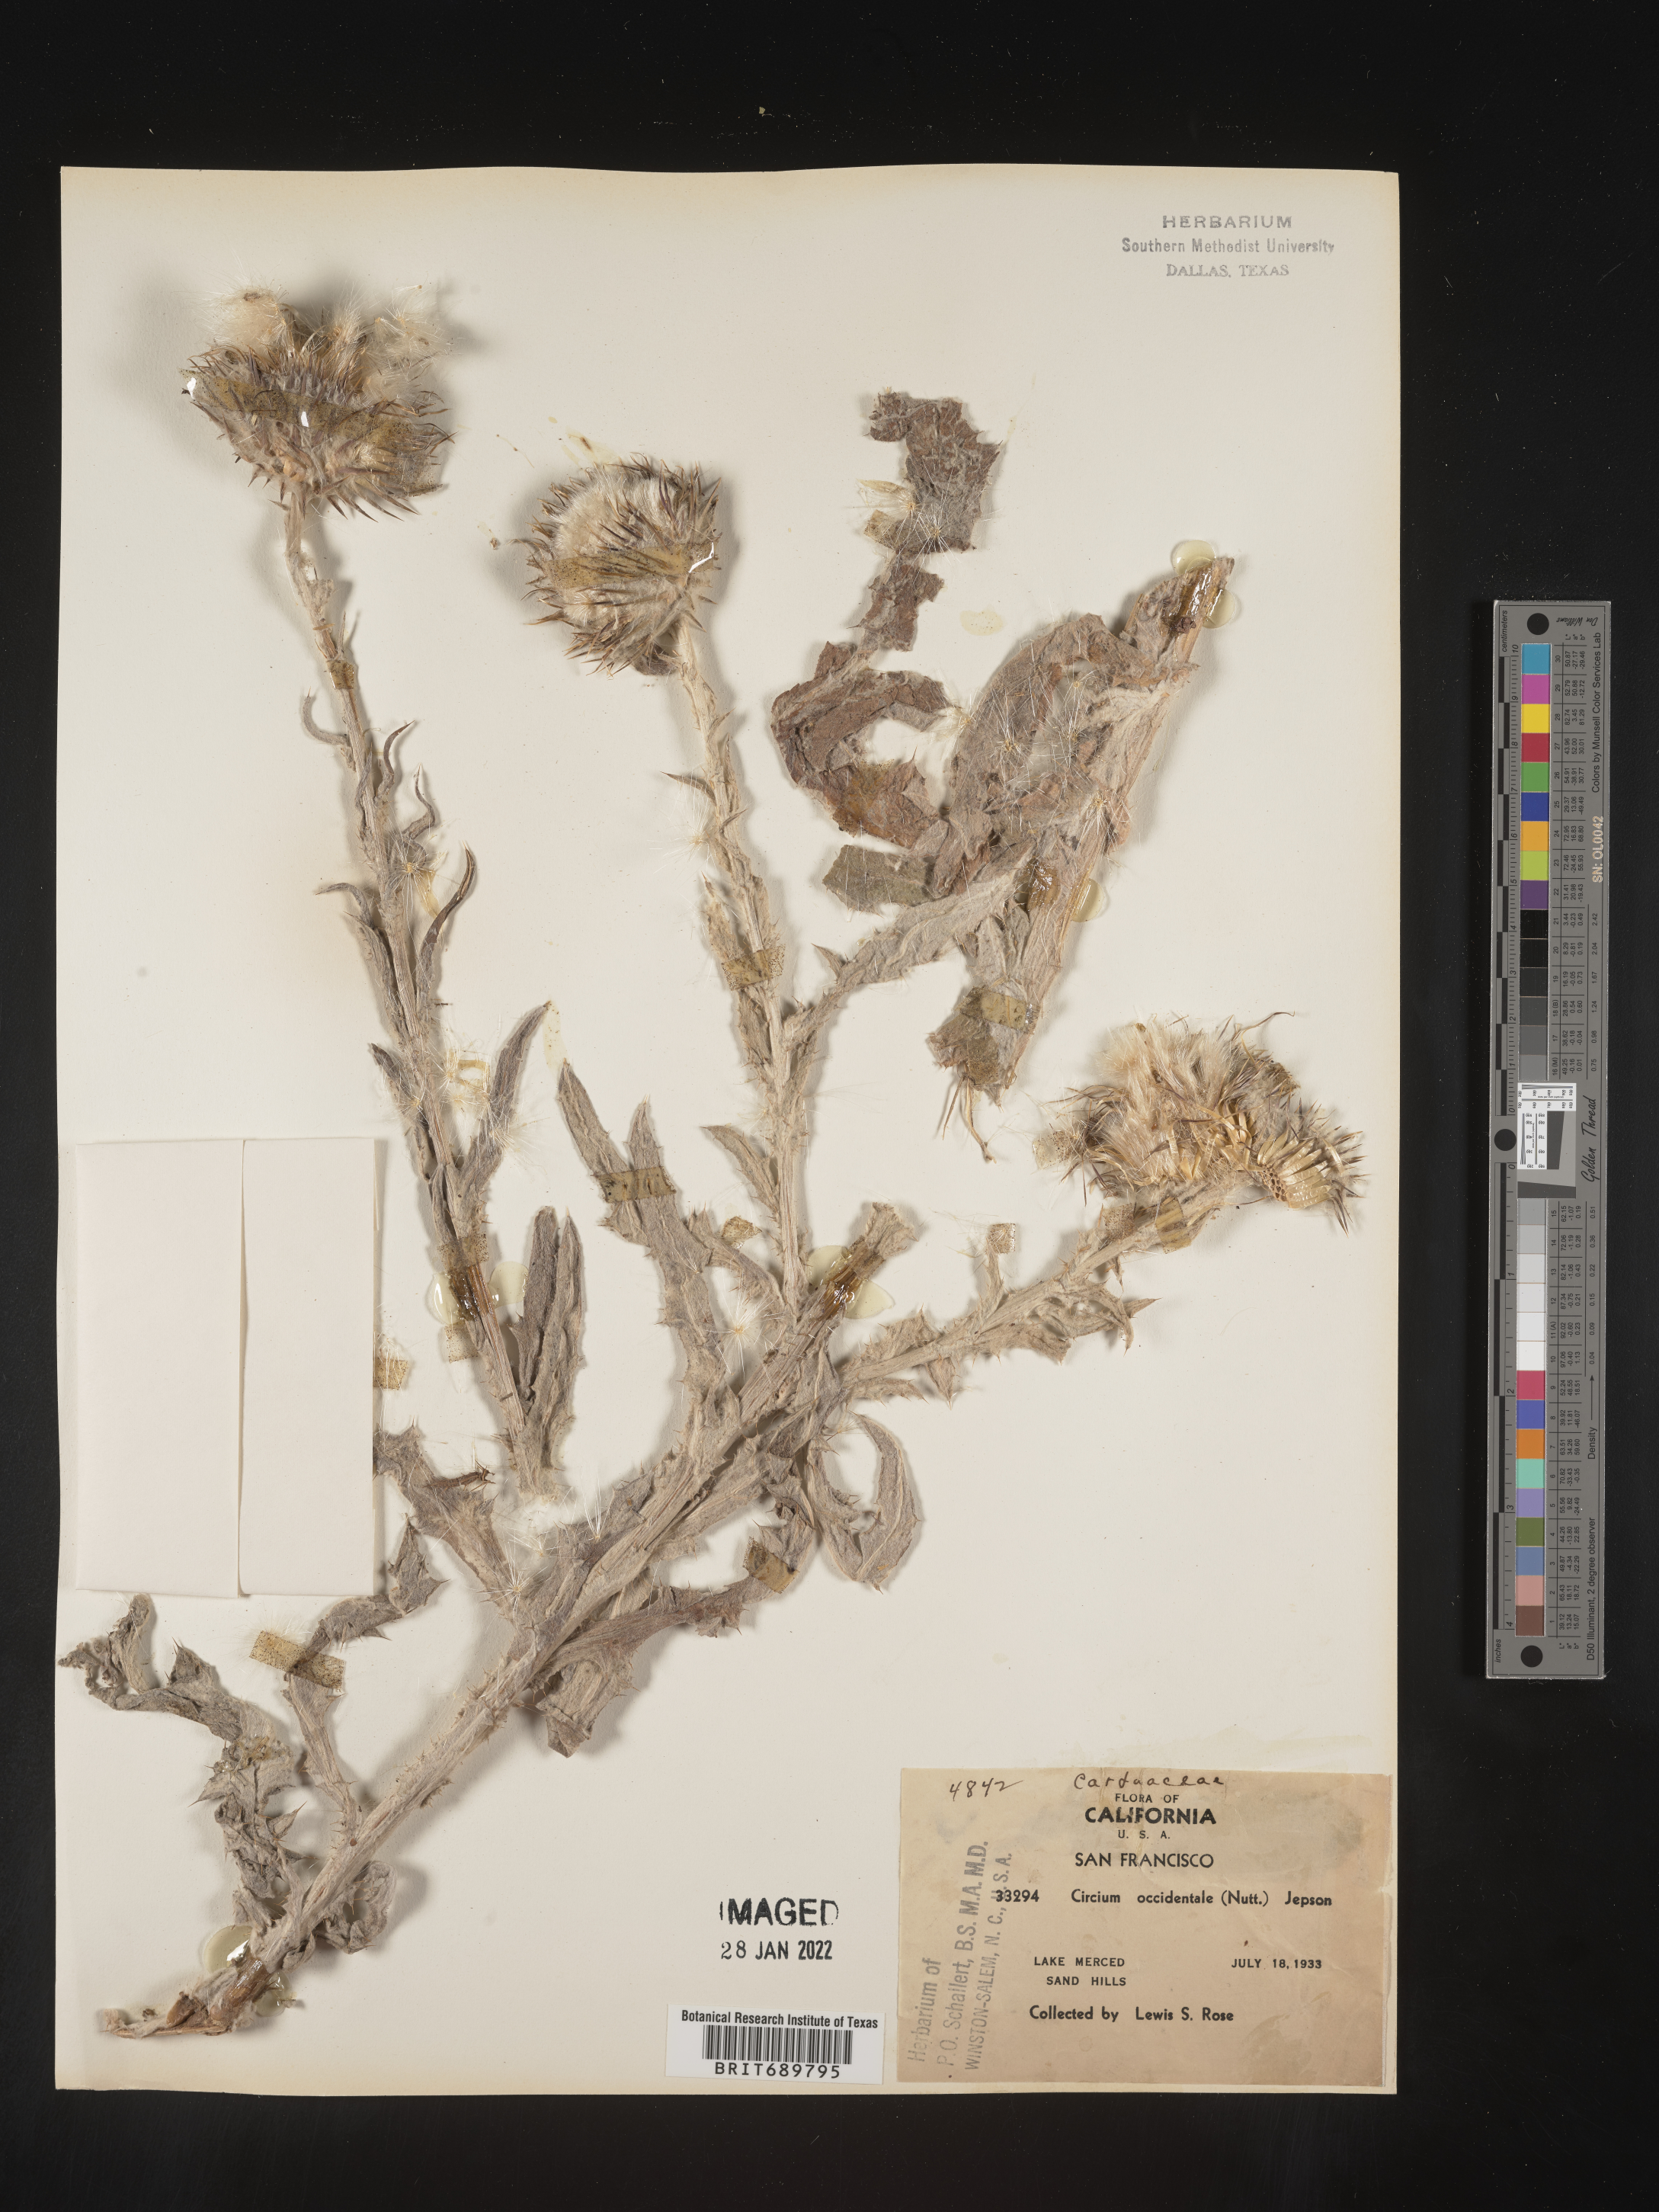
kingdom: Plantae
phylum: Tracheophyta
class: Magnoliopsida
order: Asterales
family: Asteraceae
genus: Cirsium
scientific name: Cirsium occidentale
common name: Western thistle
